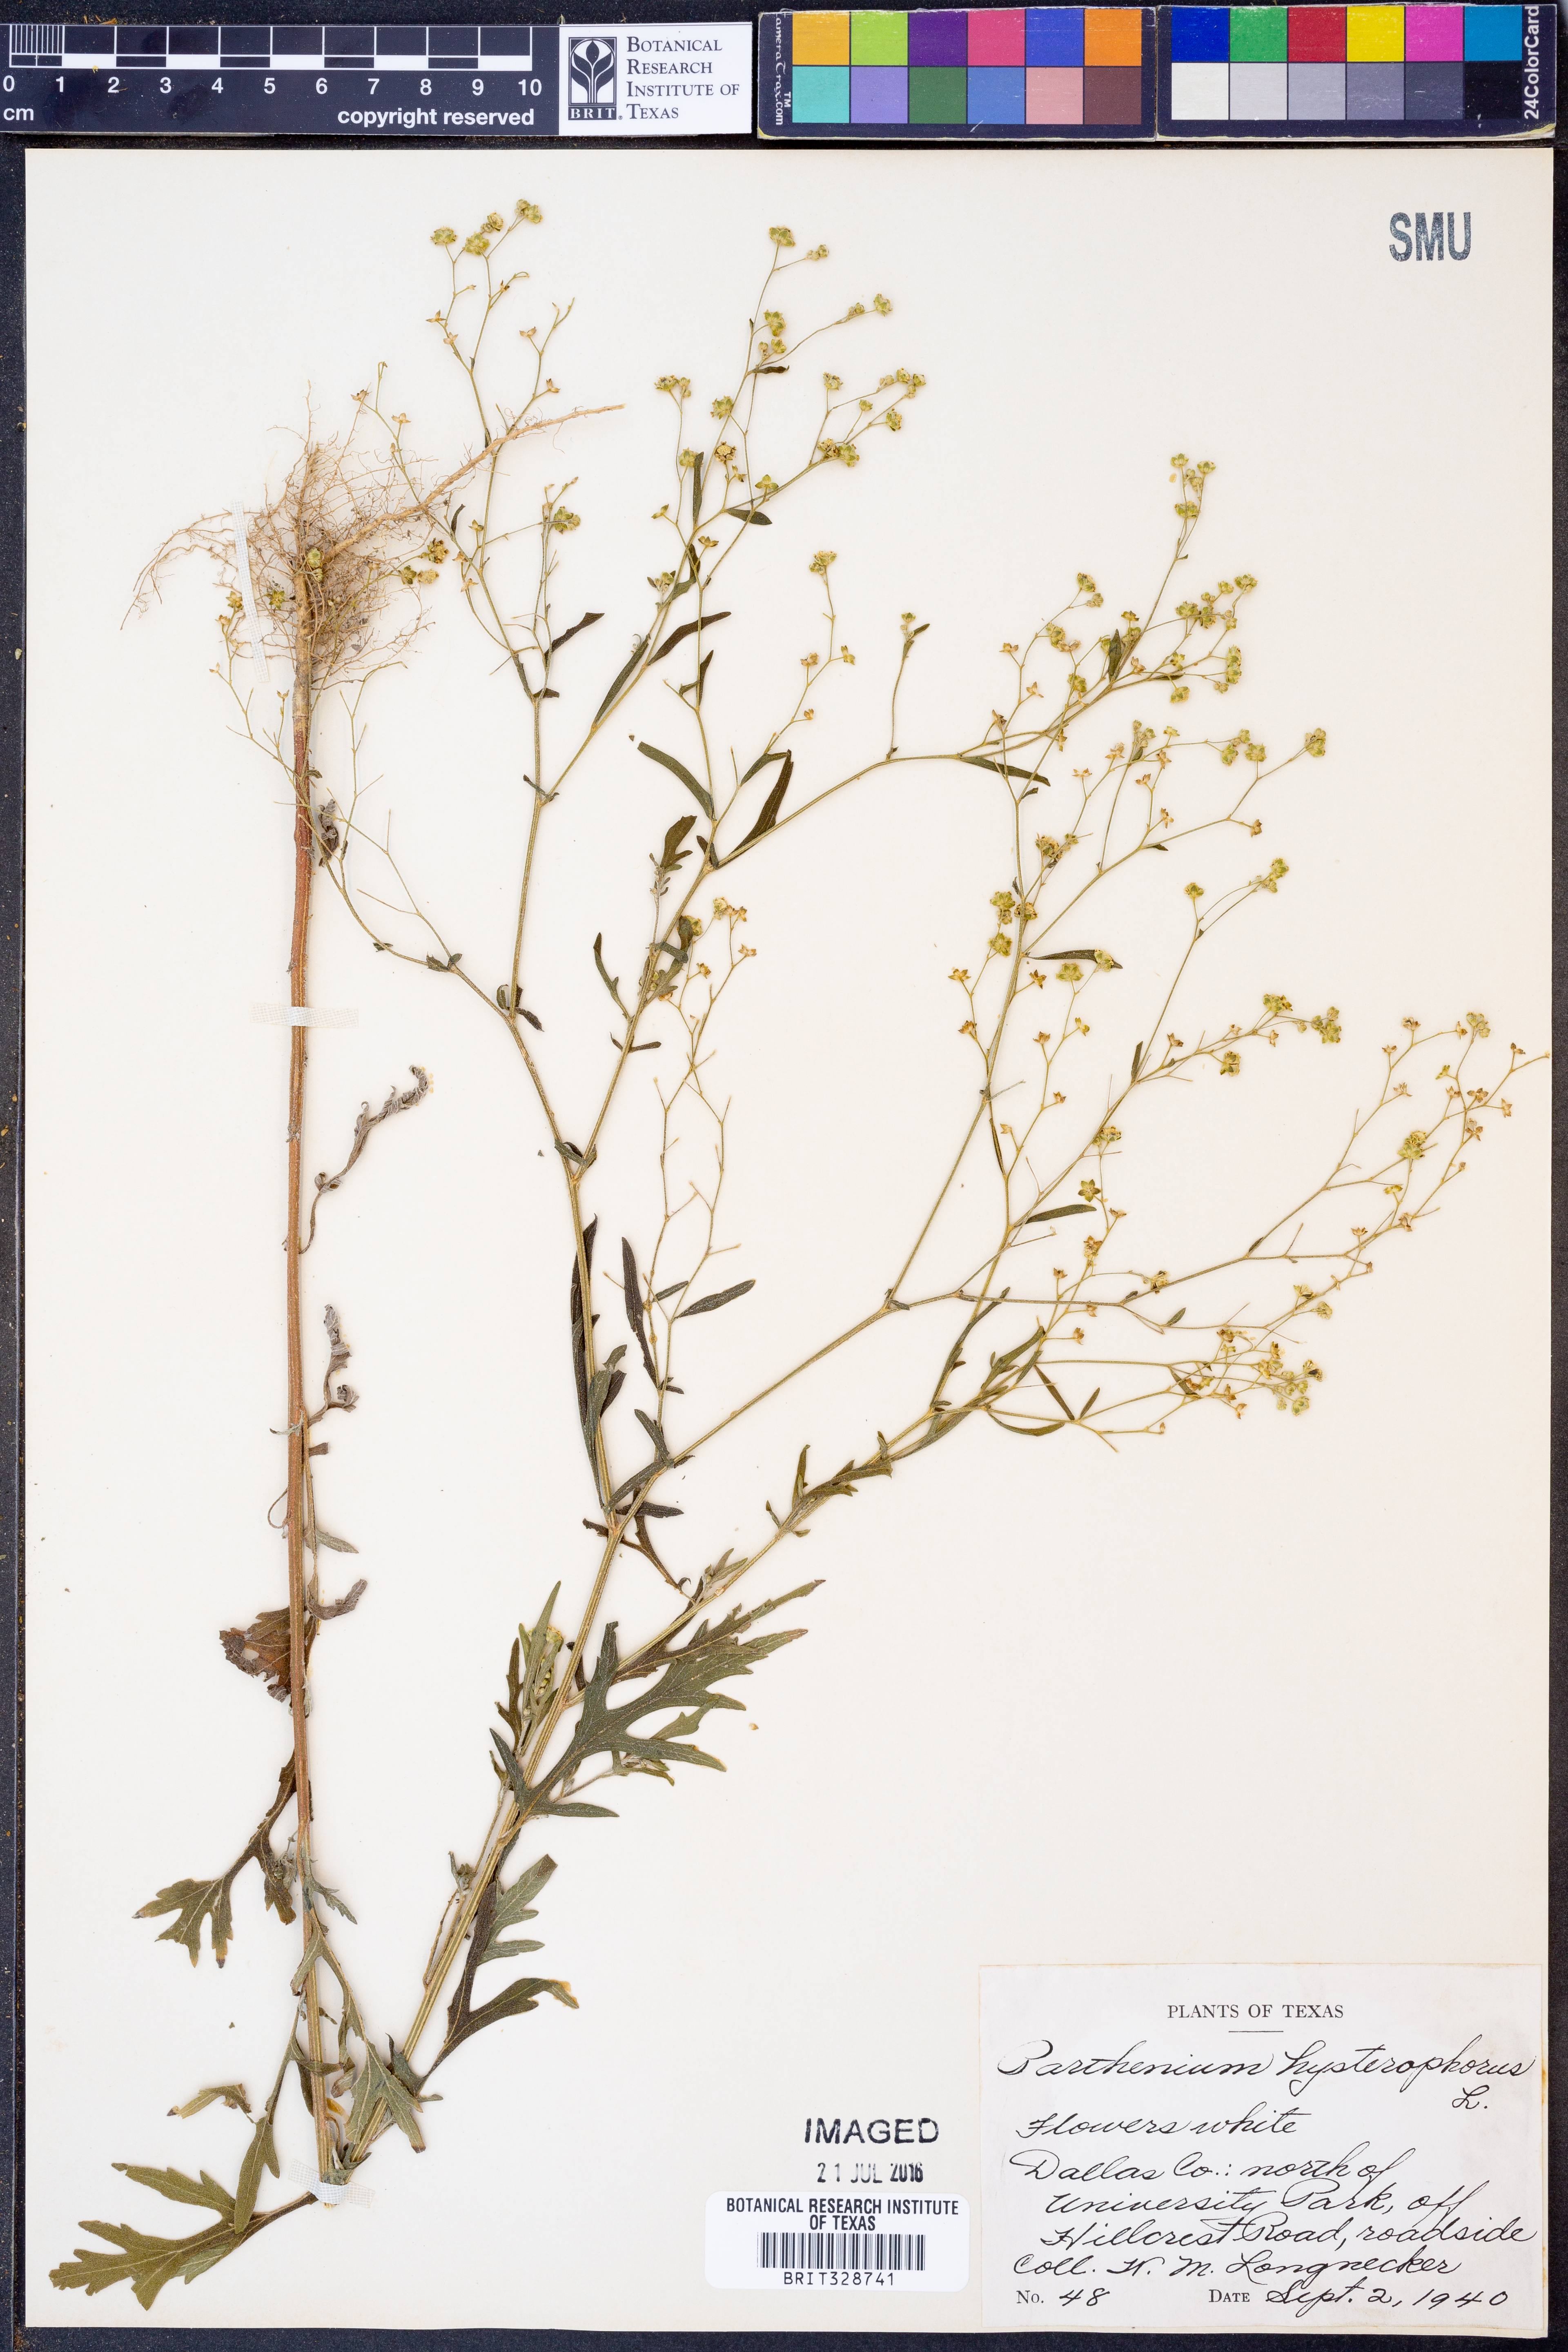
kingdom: Plantae
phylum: Tracheophyta
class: Magnoliopsida
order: Asterales
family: Asteraceae
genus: Parthenium
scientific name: Parthenium hysterophorus
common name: Santa maria feverfew
